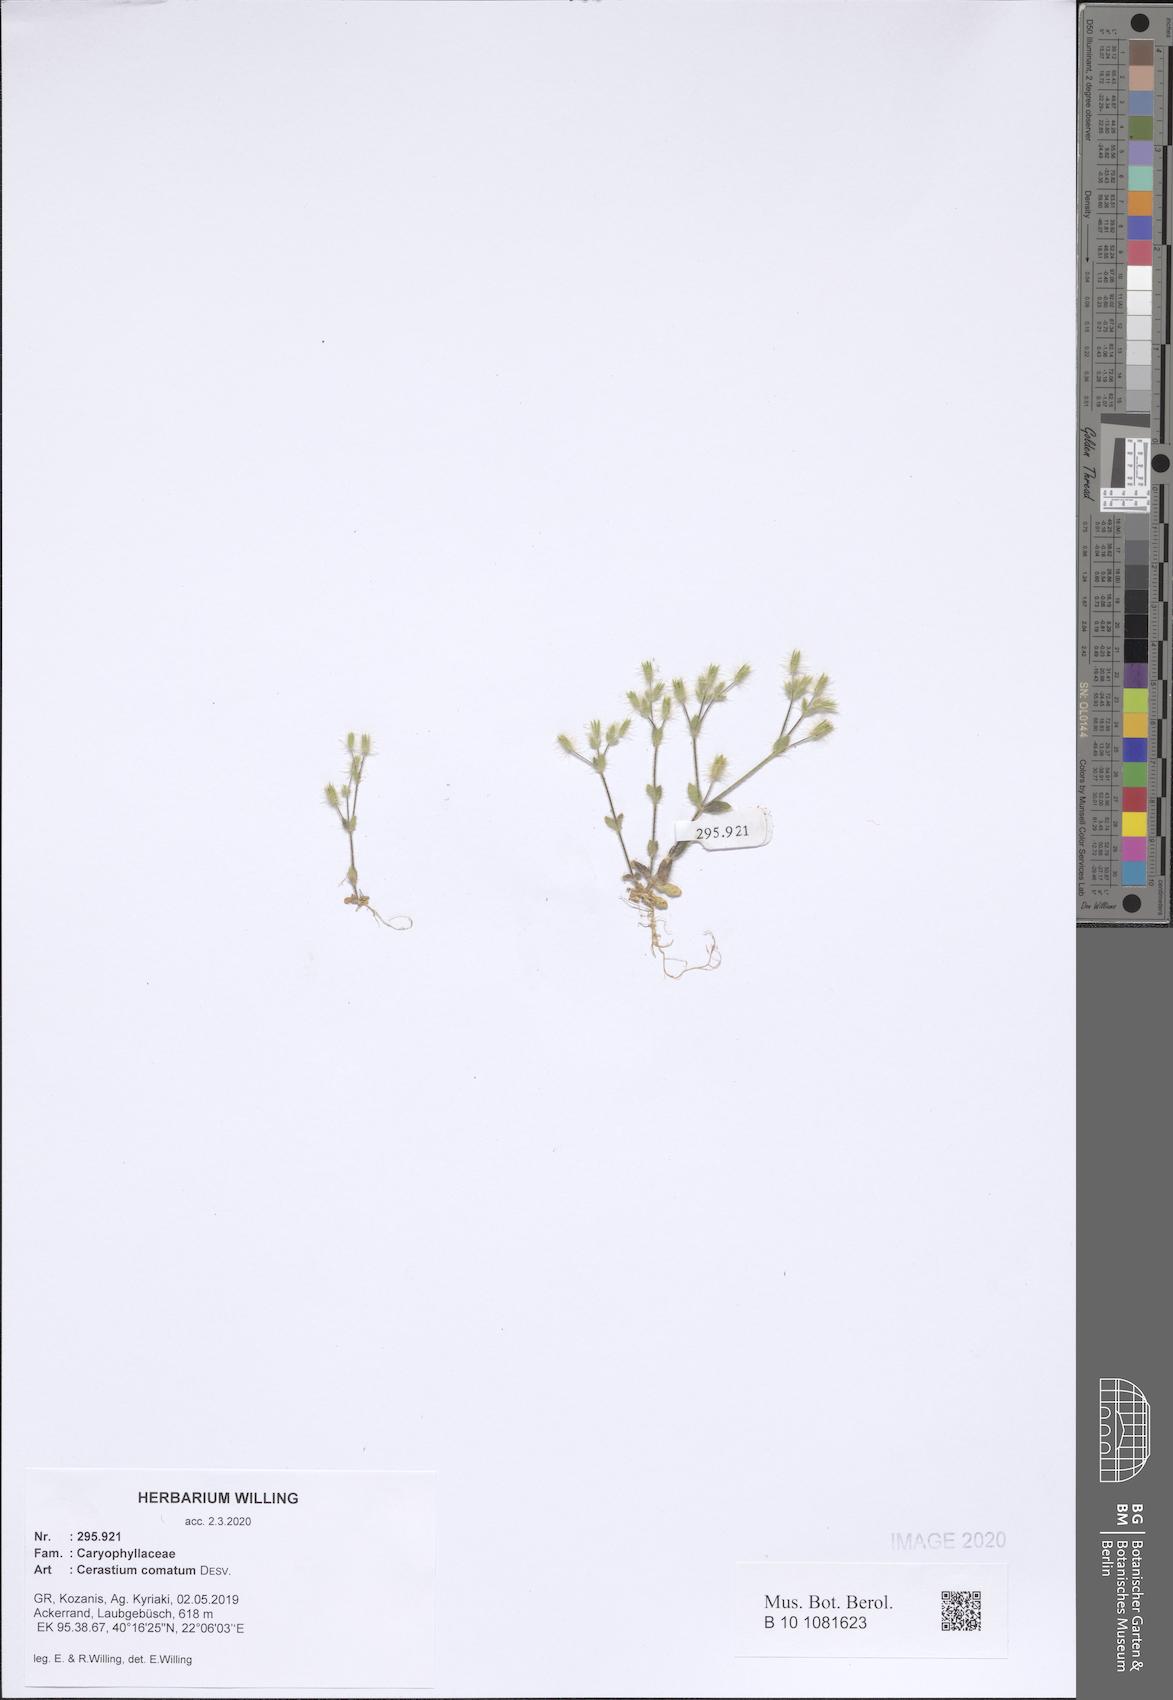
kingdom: Plantae
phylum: Tracheophyta
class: Magnoliopsida
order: Caryophyllales
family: Caryophyllaceae
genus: Cerastium
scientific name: Cerastium comatum
